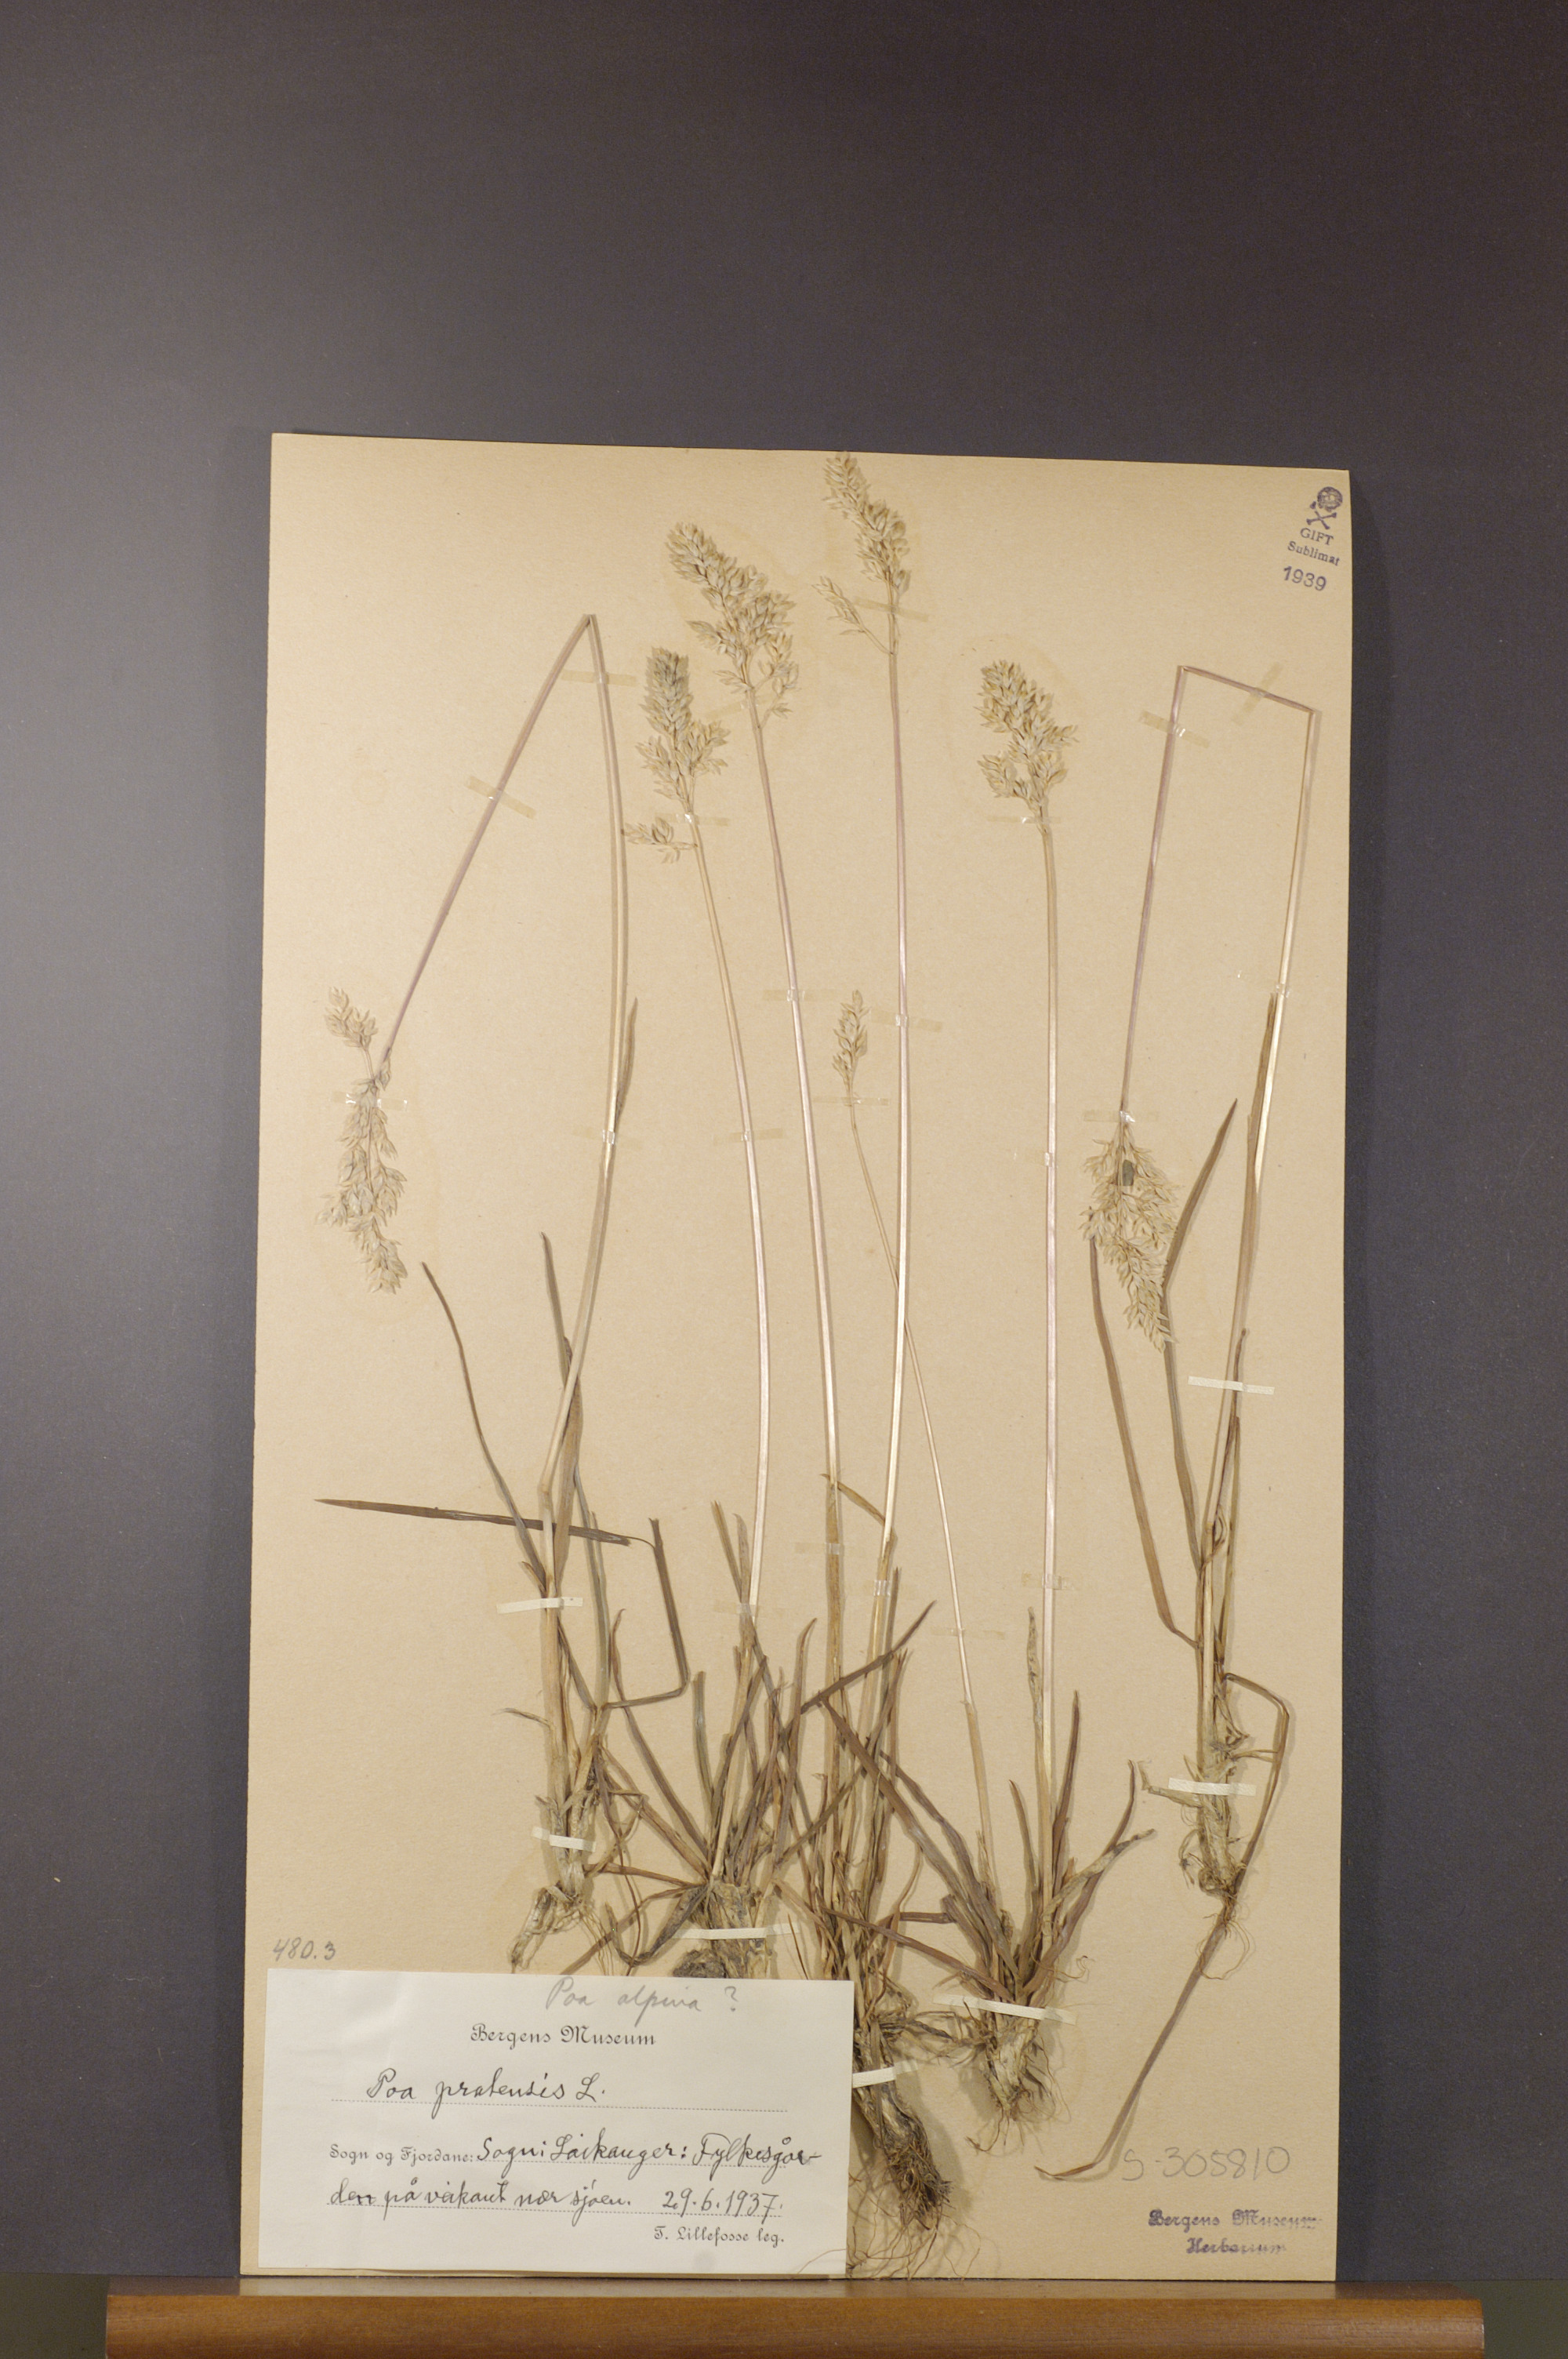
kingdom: Plantae
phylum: Tracheophyta
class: Liliopsida
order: Poales
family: Poaceae
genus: Poa
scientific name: Poa pratensis
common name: Kentucky bluegrass
